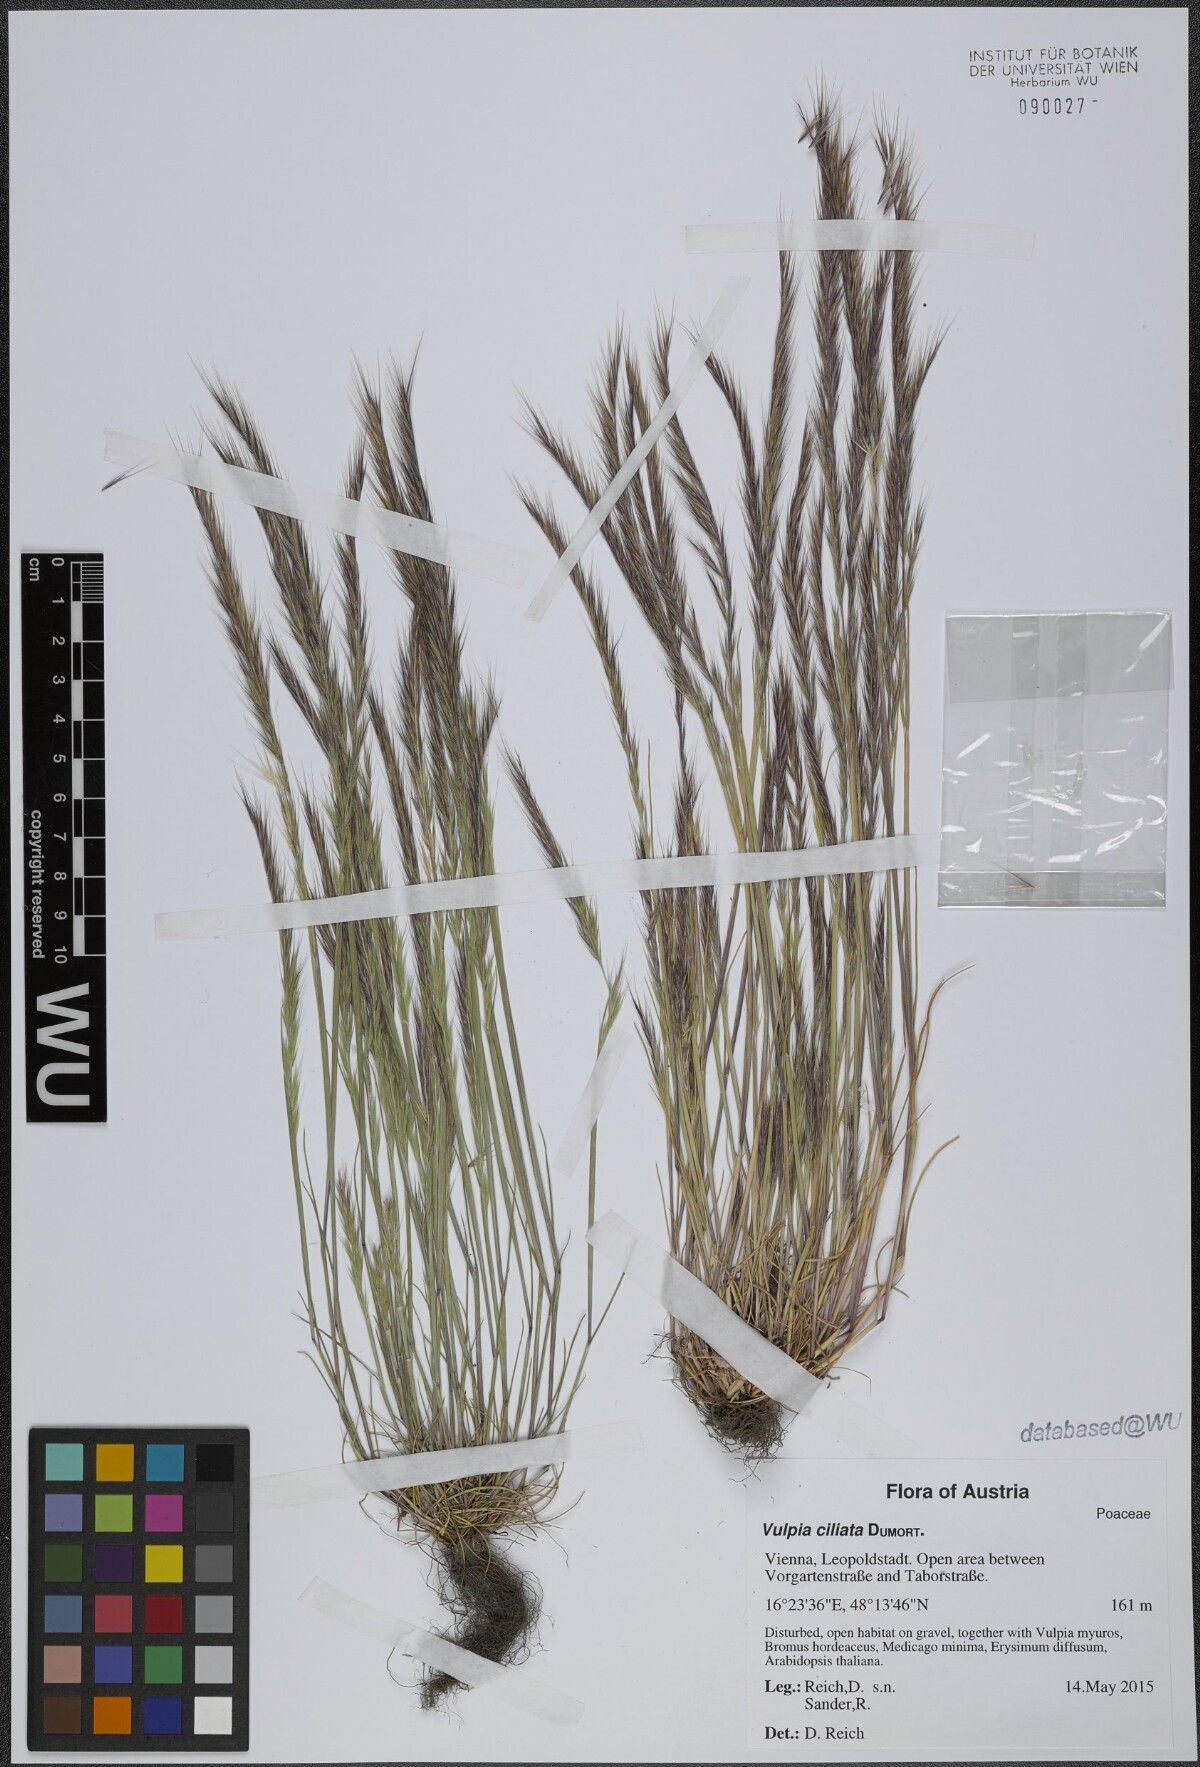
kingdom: Plantae
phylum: Tracheophyta
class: Liliopsida
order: Poales
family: Poaceae
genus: Festuca
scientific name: Festuca ambigua
